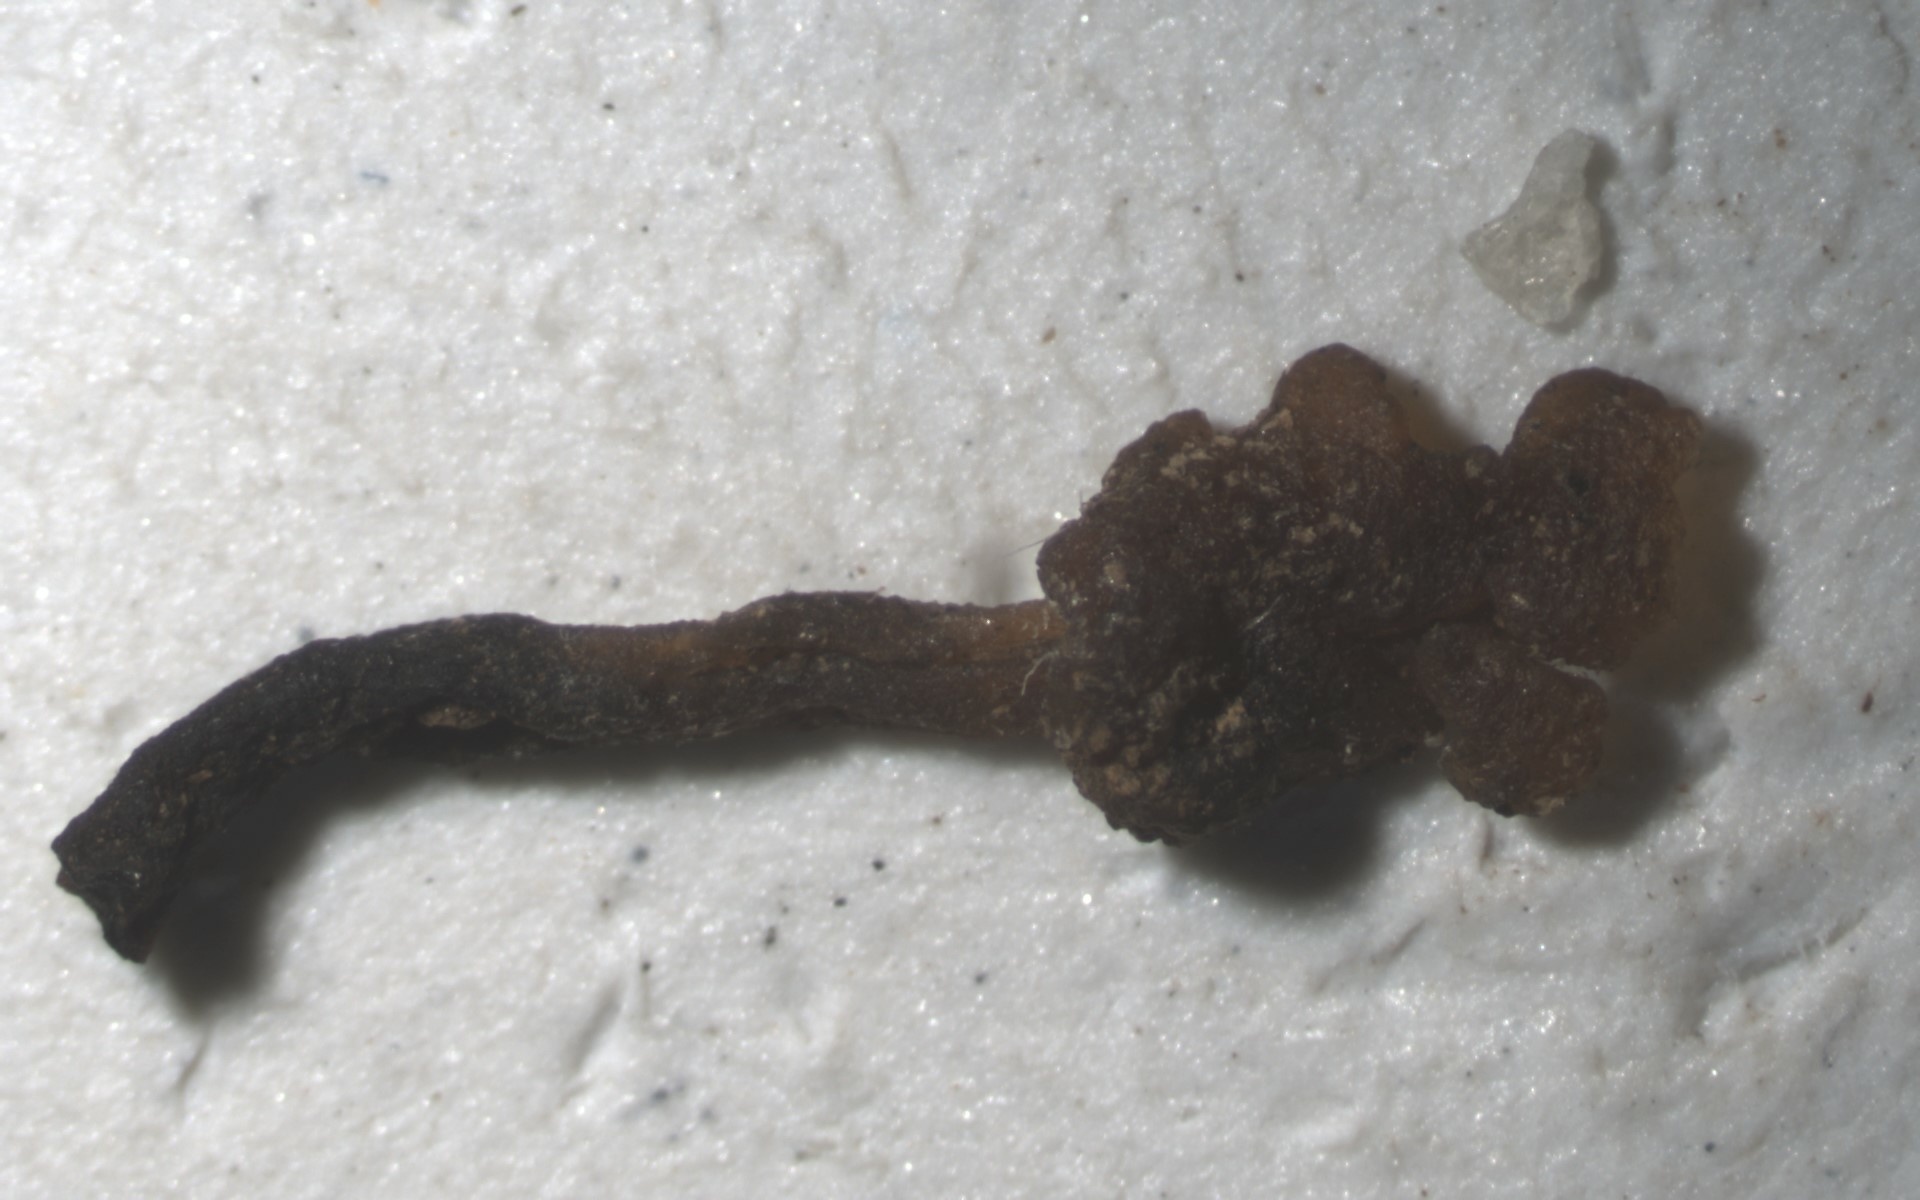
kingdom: Fungi
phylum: Basidiomycota
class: Dacrymycetes
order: Dacrymycetales
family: Dacrymycetaceae
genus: Dacryopinax
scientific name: Dacryopinax crenata
